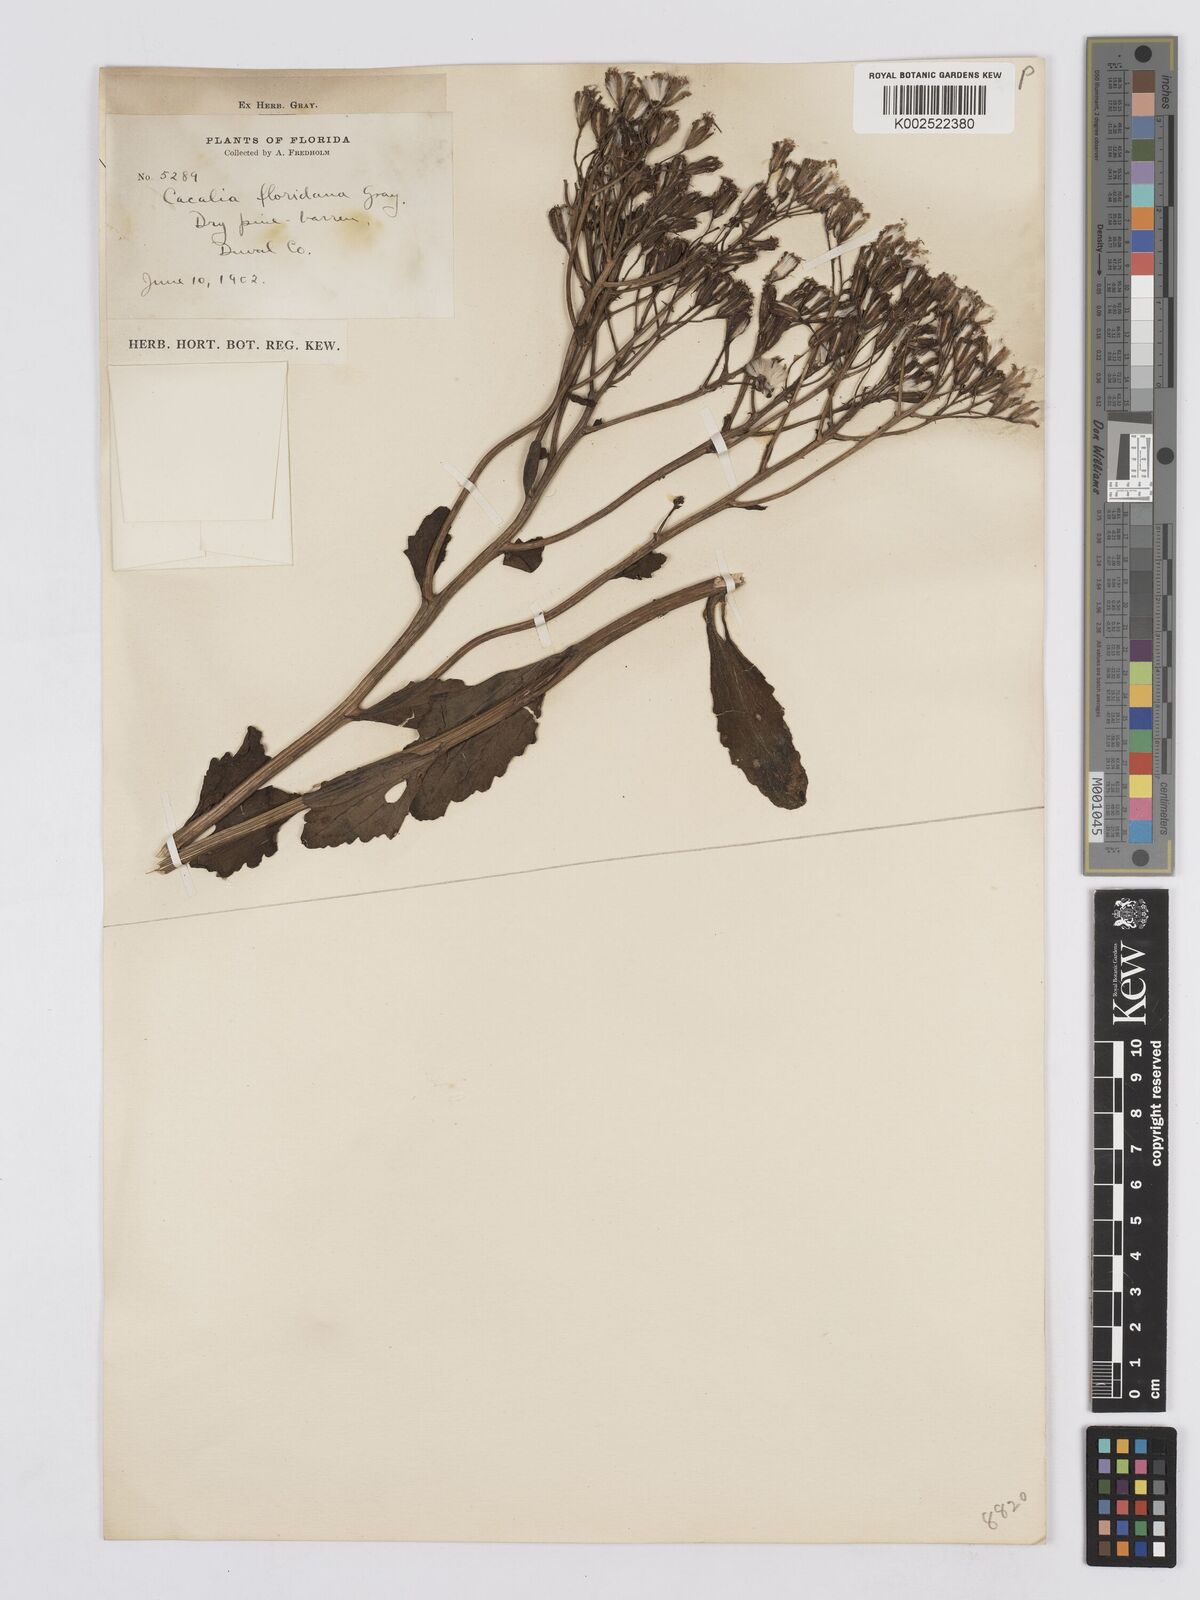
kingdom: Plantae
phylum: Tracheophyta
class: Magnoliopsida
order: Asterales
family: Asteraceae
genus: Arnoglossum
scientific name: Arnoglossum floridanum
